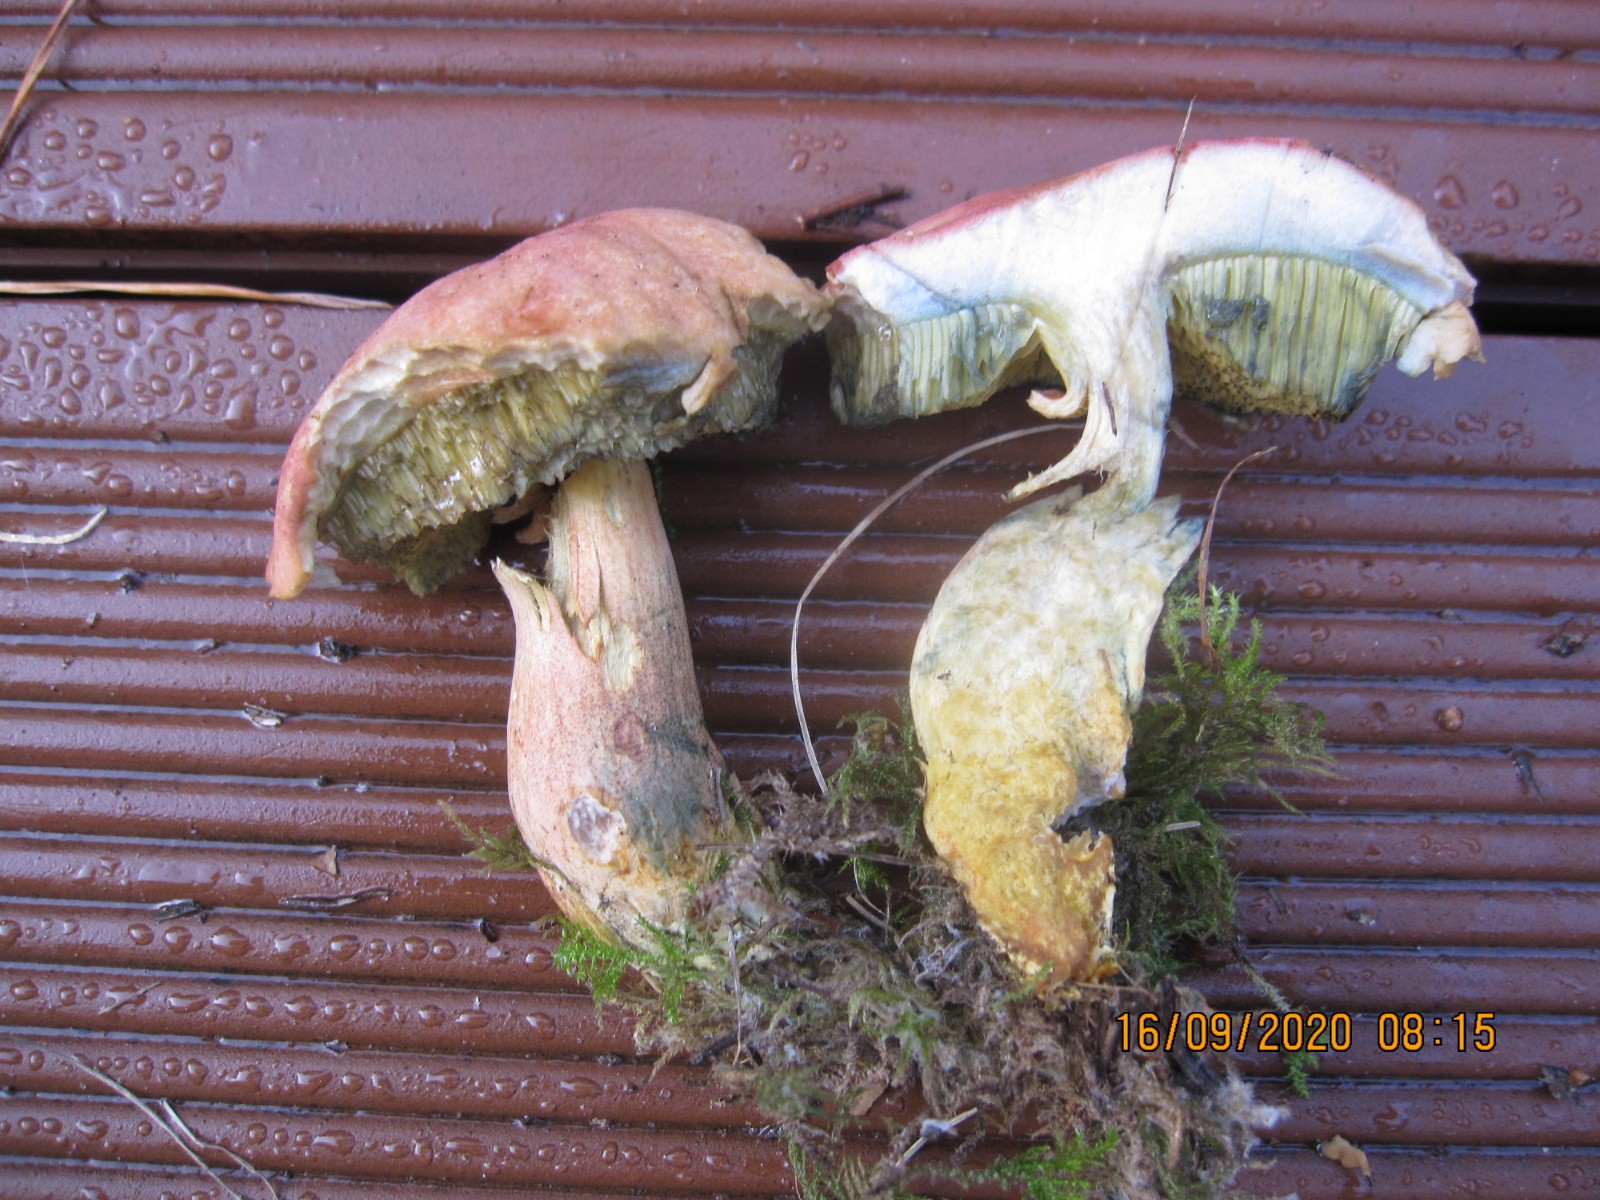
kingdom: Fungi
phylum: Basidiomycota
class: Agaricomycetes
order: Boletales
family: Boletaceae
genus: Hortiboletus
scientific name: Hortiboletus bubalinus
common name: aurora-rørhat
